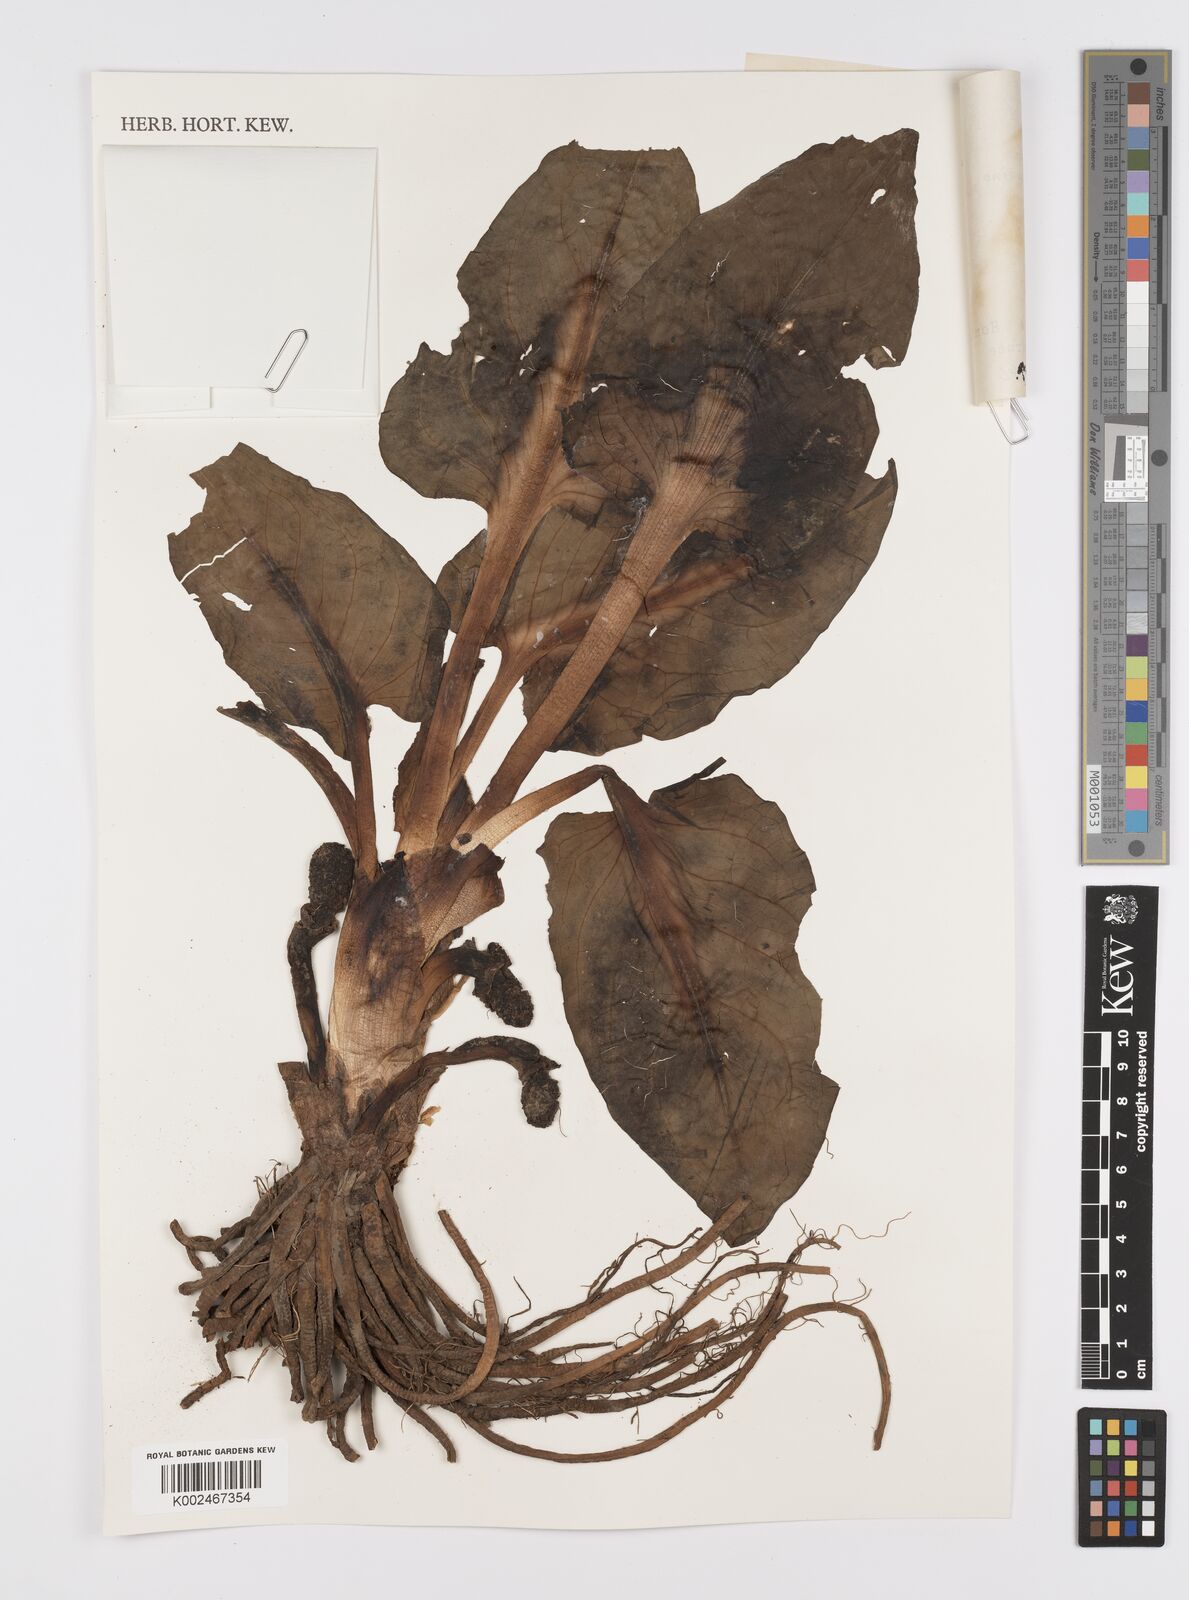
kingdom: Plantae
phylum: Tracheophyta
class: Liliopsida
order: Alismatales
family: Araceae
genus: Symplocarpus
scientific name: Symplocarpus nipponicus
